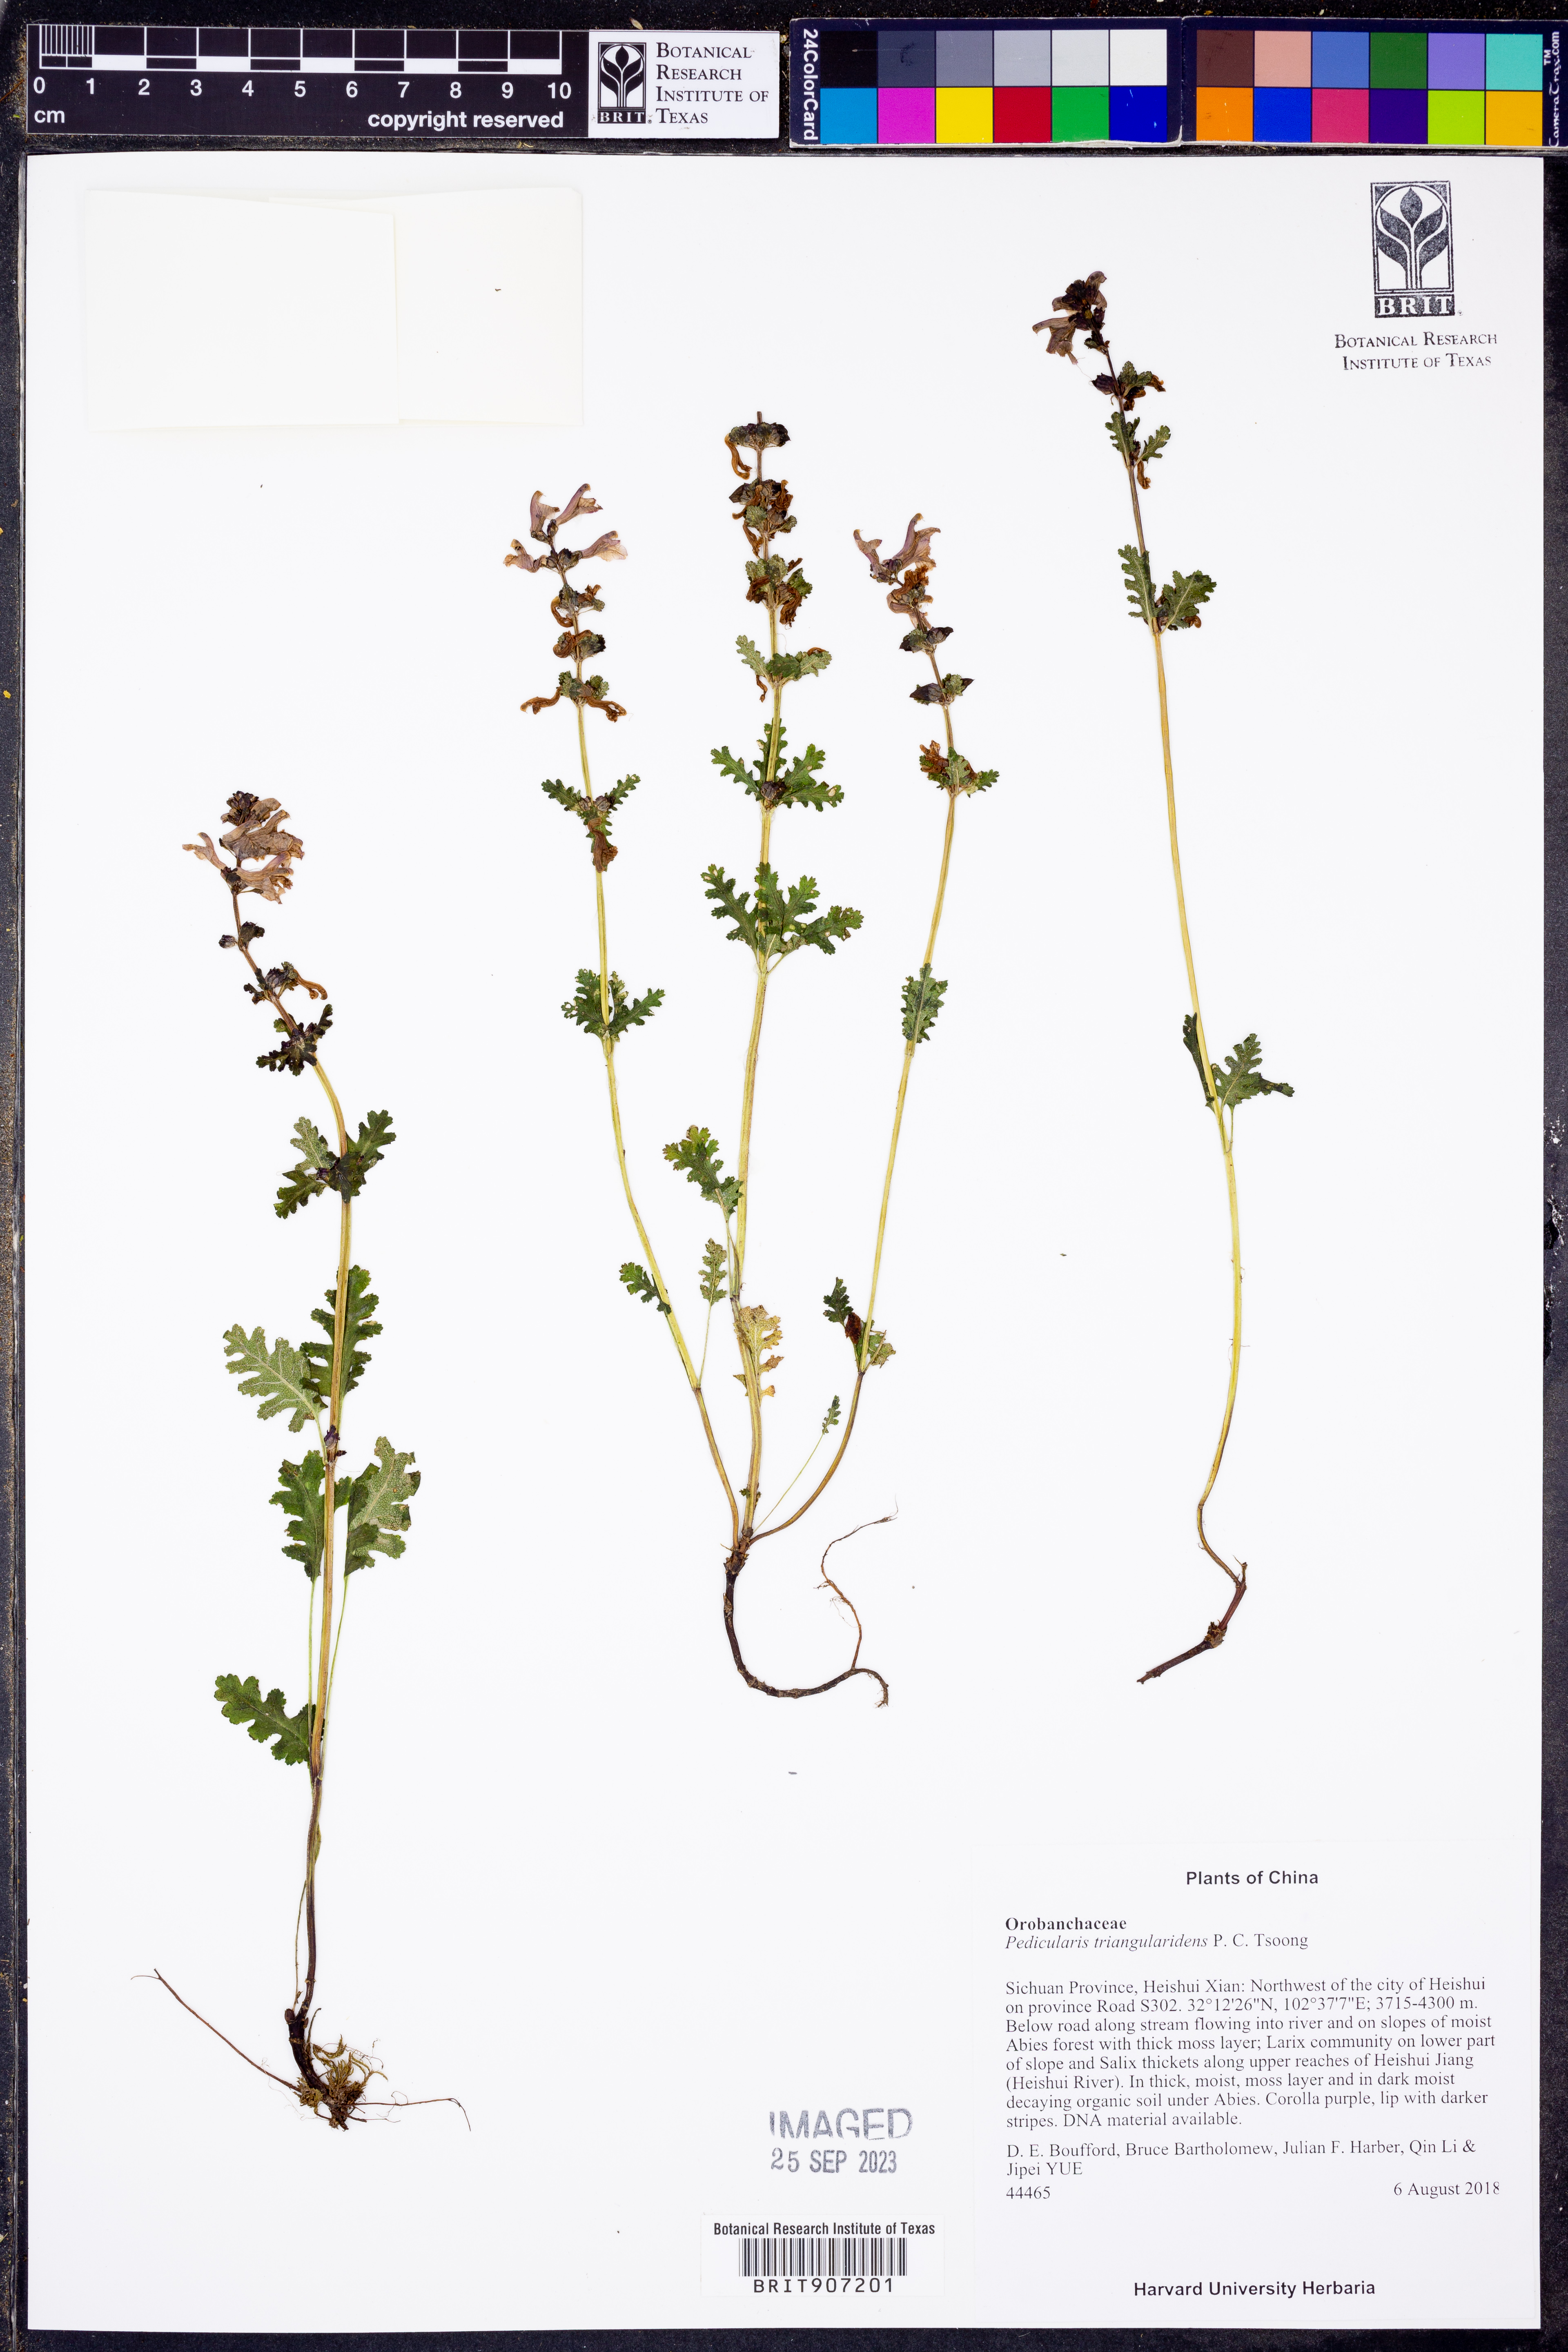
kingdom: Plantae
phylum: Tracheophyta
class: Magnoliopsida
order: Lamiales
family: Orobanchaceae
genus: Pedicularis
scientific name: Pedicularis triangularidens
